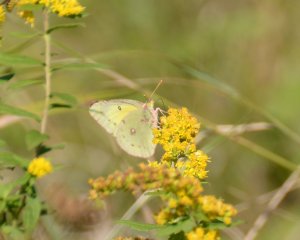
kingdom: Animalia
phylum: Arthropoda
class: Insecta
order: Lepidoptera
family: Pieridae
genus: Colias
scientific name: Colias philodice
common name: Clouded Sulphur
